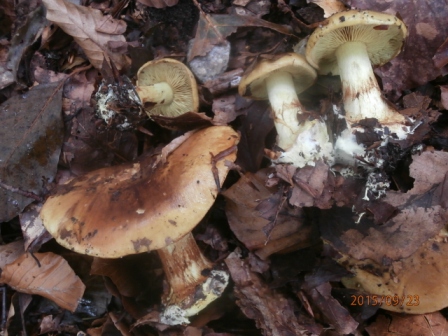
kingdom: Fungi
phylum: Basidiomycota
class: Agaricomycetes
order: Agaricales
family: Cortinariaceae
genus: Calonarius
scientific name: Calonarius citrinus
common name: citrongul slørhat
